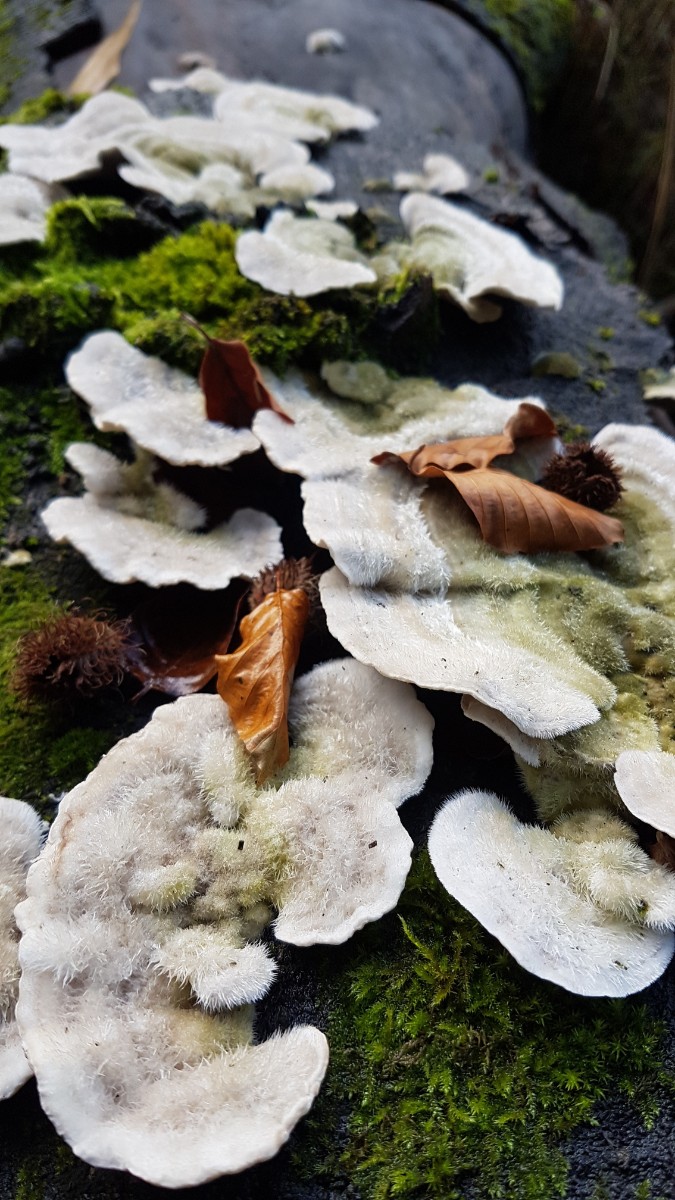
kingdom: Fungi
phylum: Basidiomycota
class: Agaricomycetes
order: Polyporales
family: Polyporaceae
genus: Trametes
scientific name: Trametes hirsuta
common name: håret læderporesvamp
